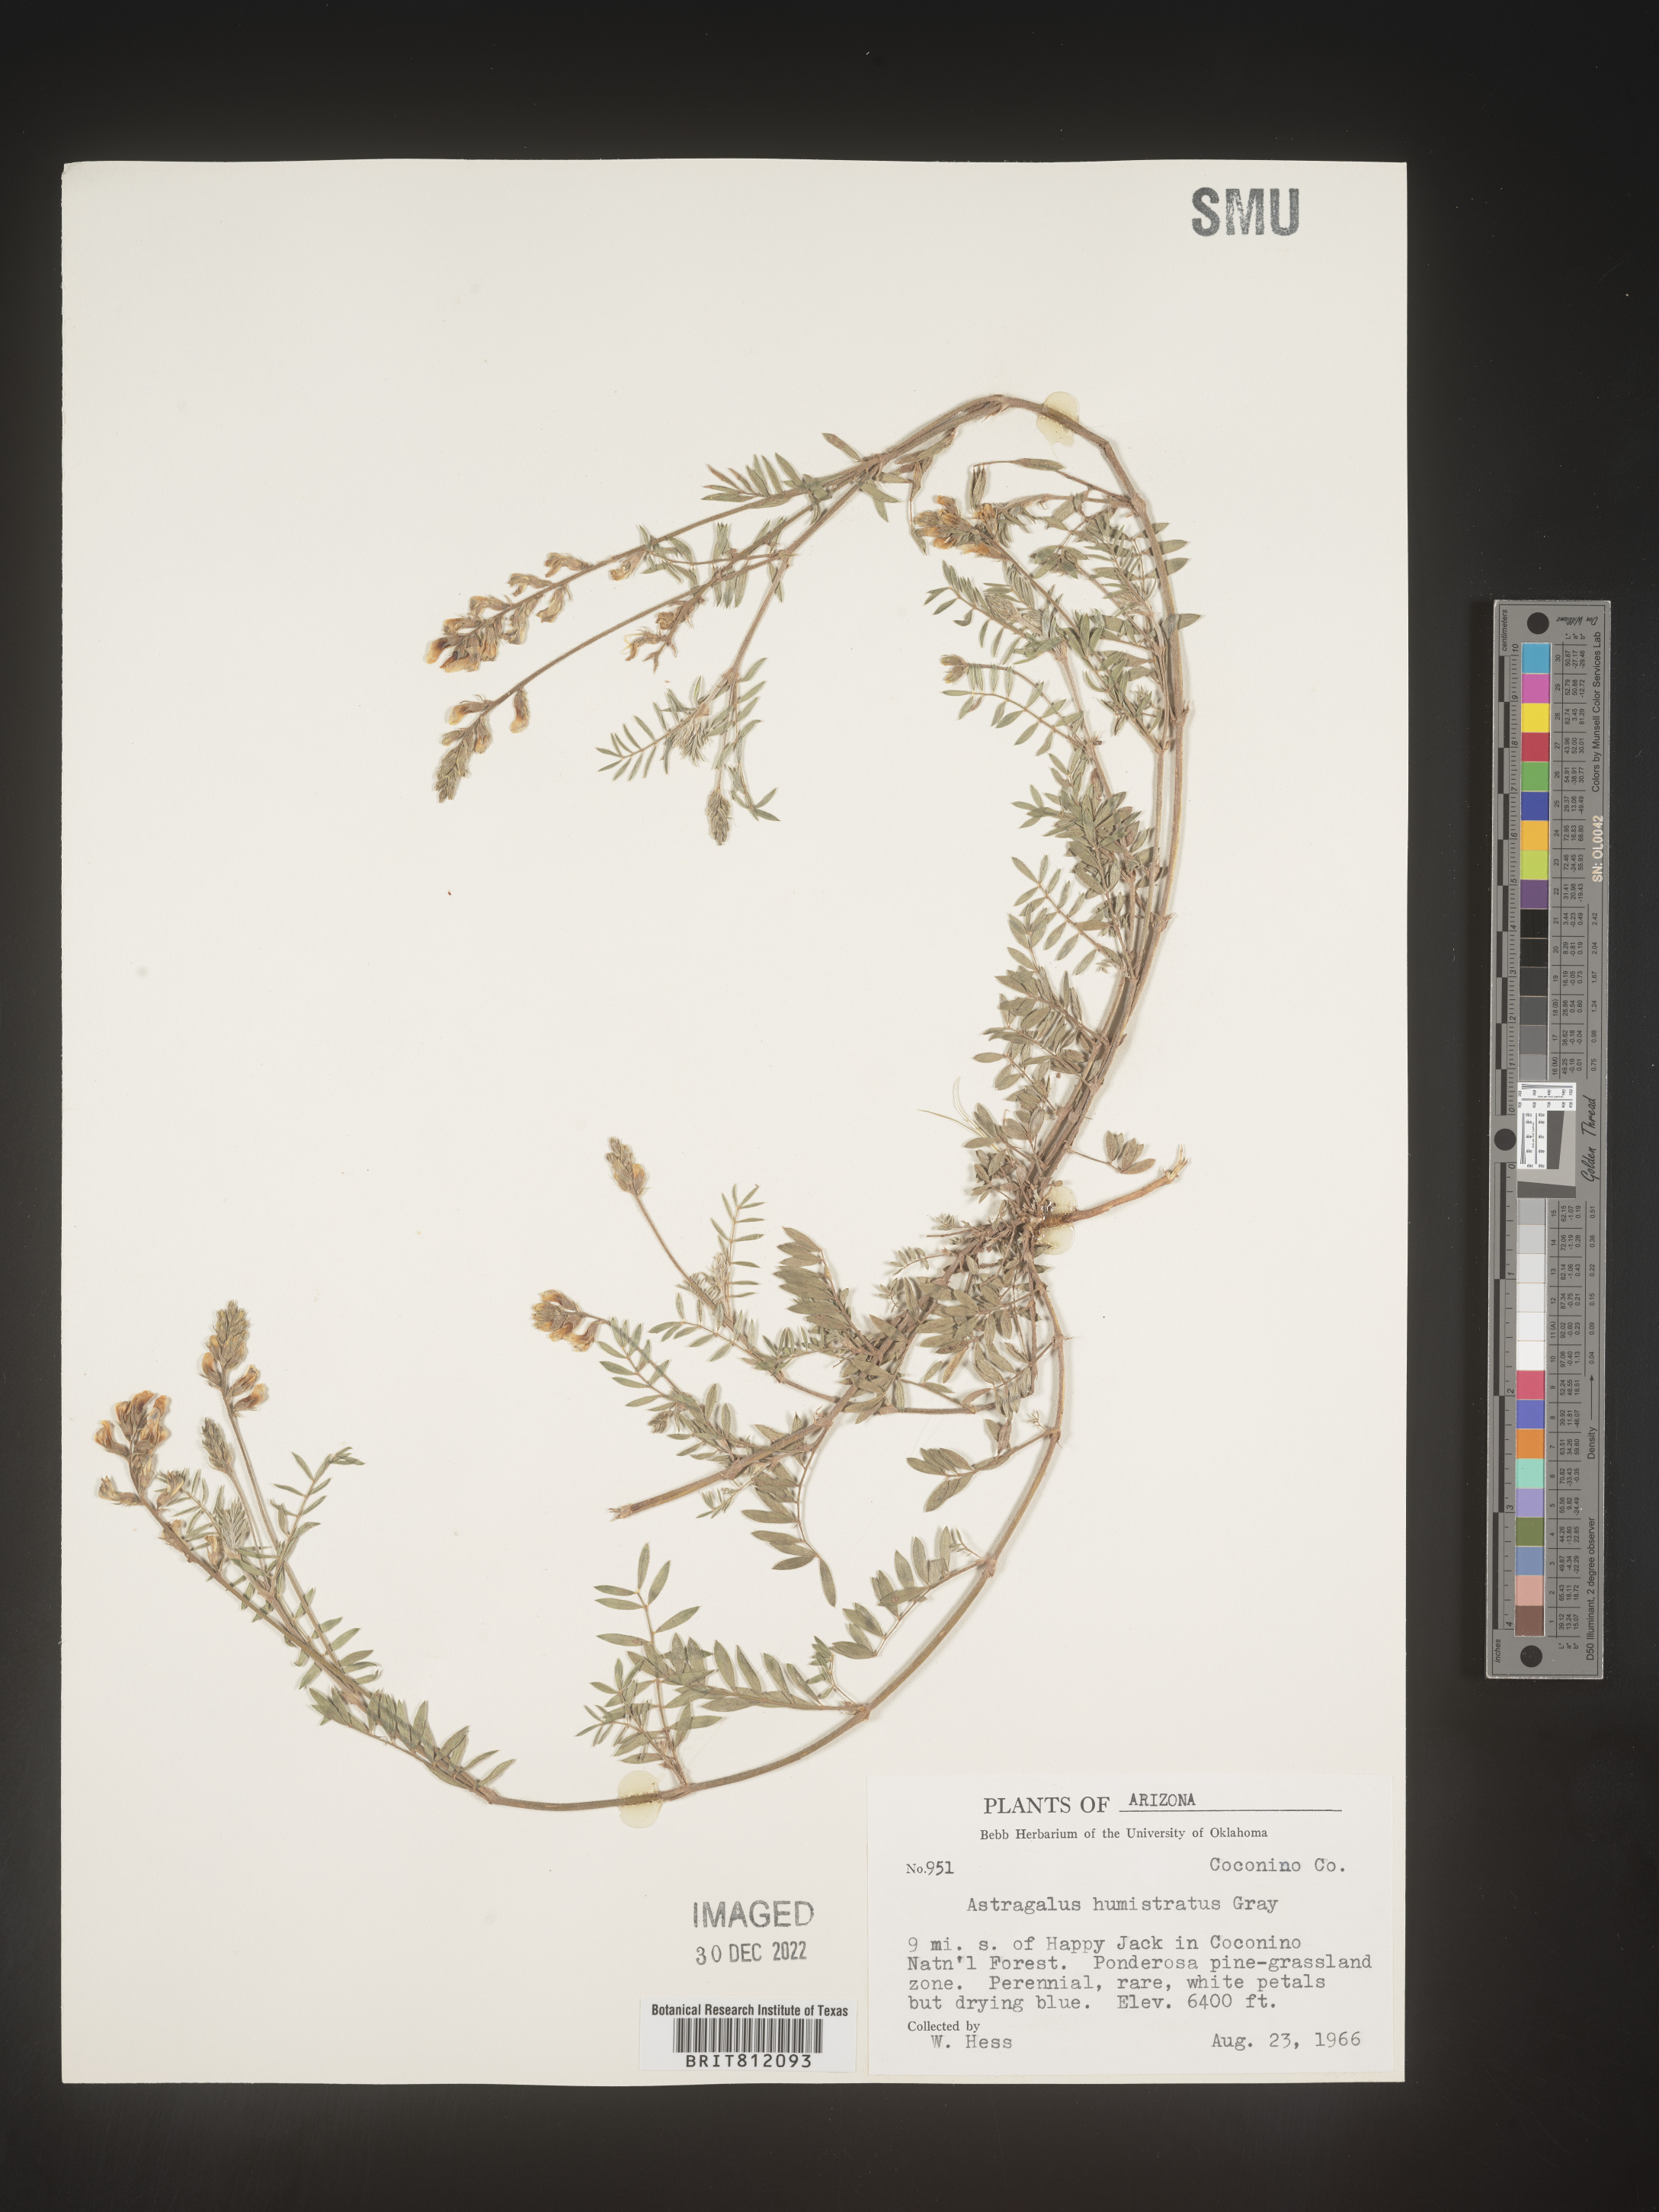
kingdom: Plantae
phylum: Tracheophyta
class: Magnoliopsida
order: Fabales
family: Fabaceae
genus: Astragalus
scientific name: Astragalus
